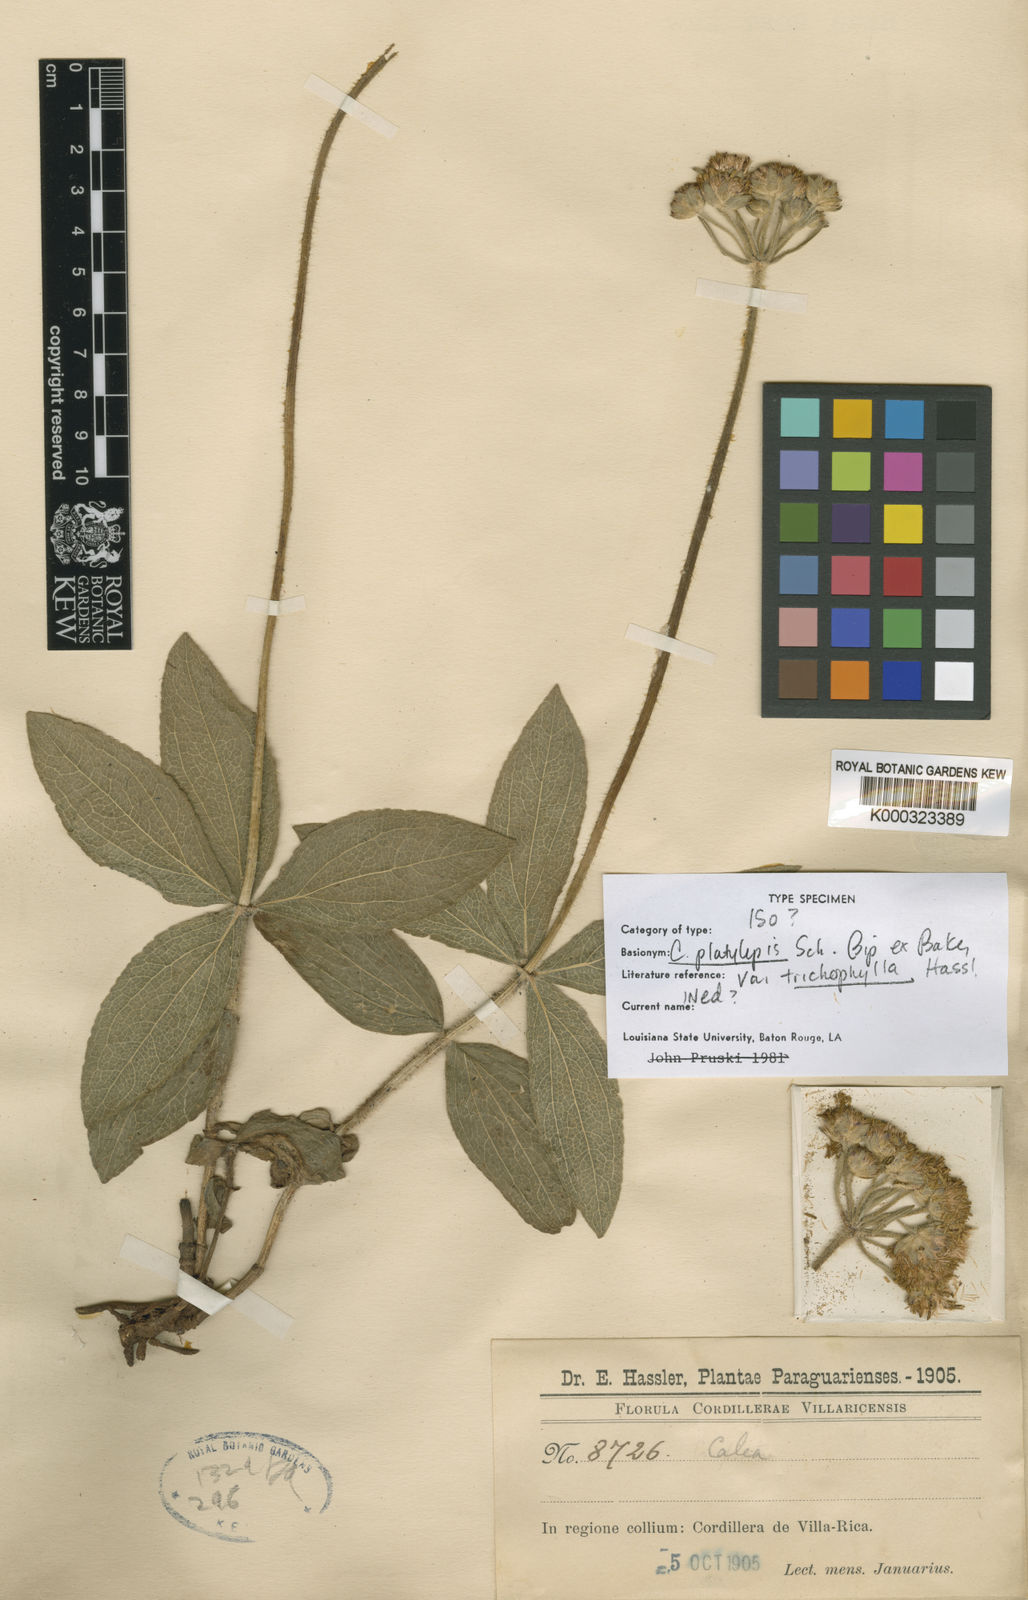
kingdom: Plantae
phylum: Tracheophyta
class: Magnoliopsida
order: Asterales
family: Asteraceae
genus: Calea
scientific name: Calea mediterranea
